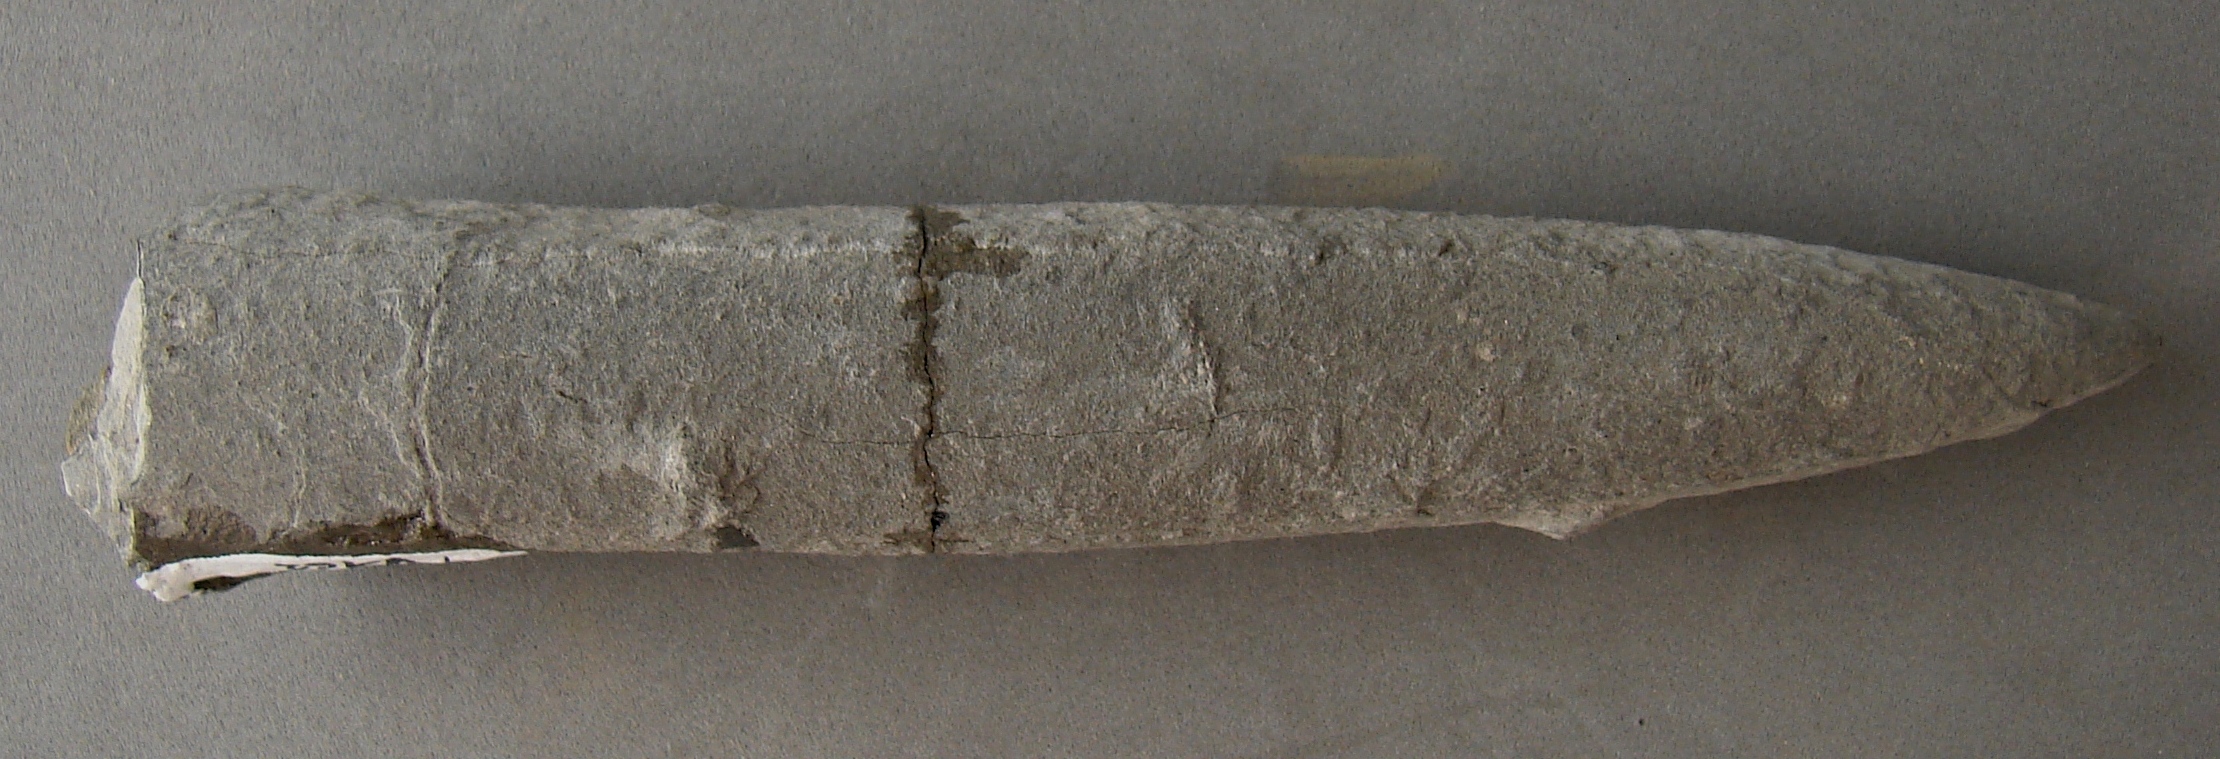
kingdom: Animalia
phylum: Mollusca
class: Cephalopoda
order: Belemnitida
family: Passaloteuthidae
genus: Passaloteuthis
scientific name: Passaloteuthis bisulcata
